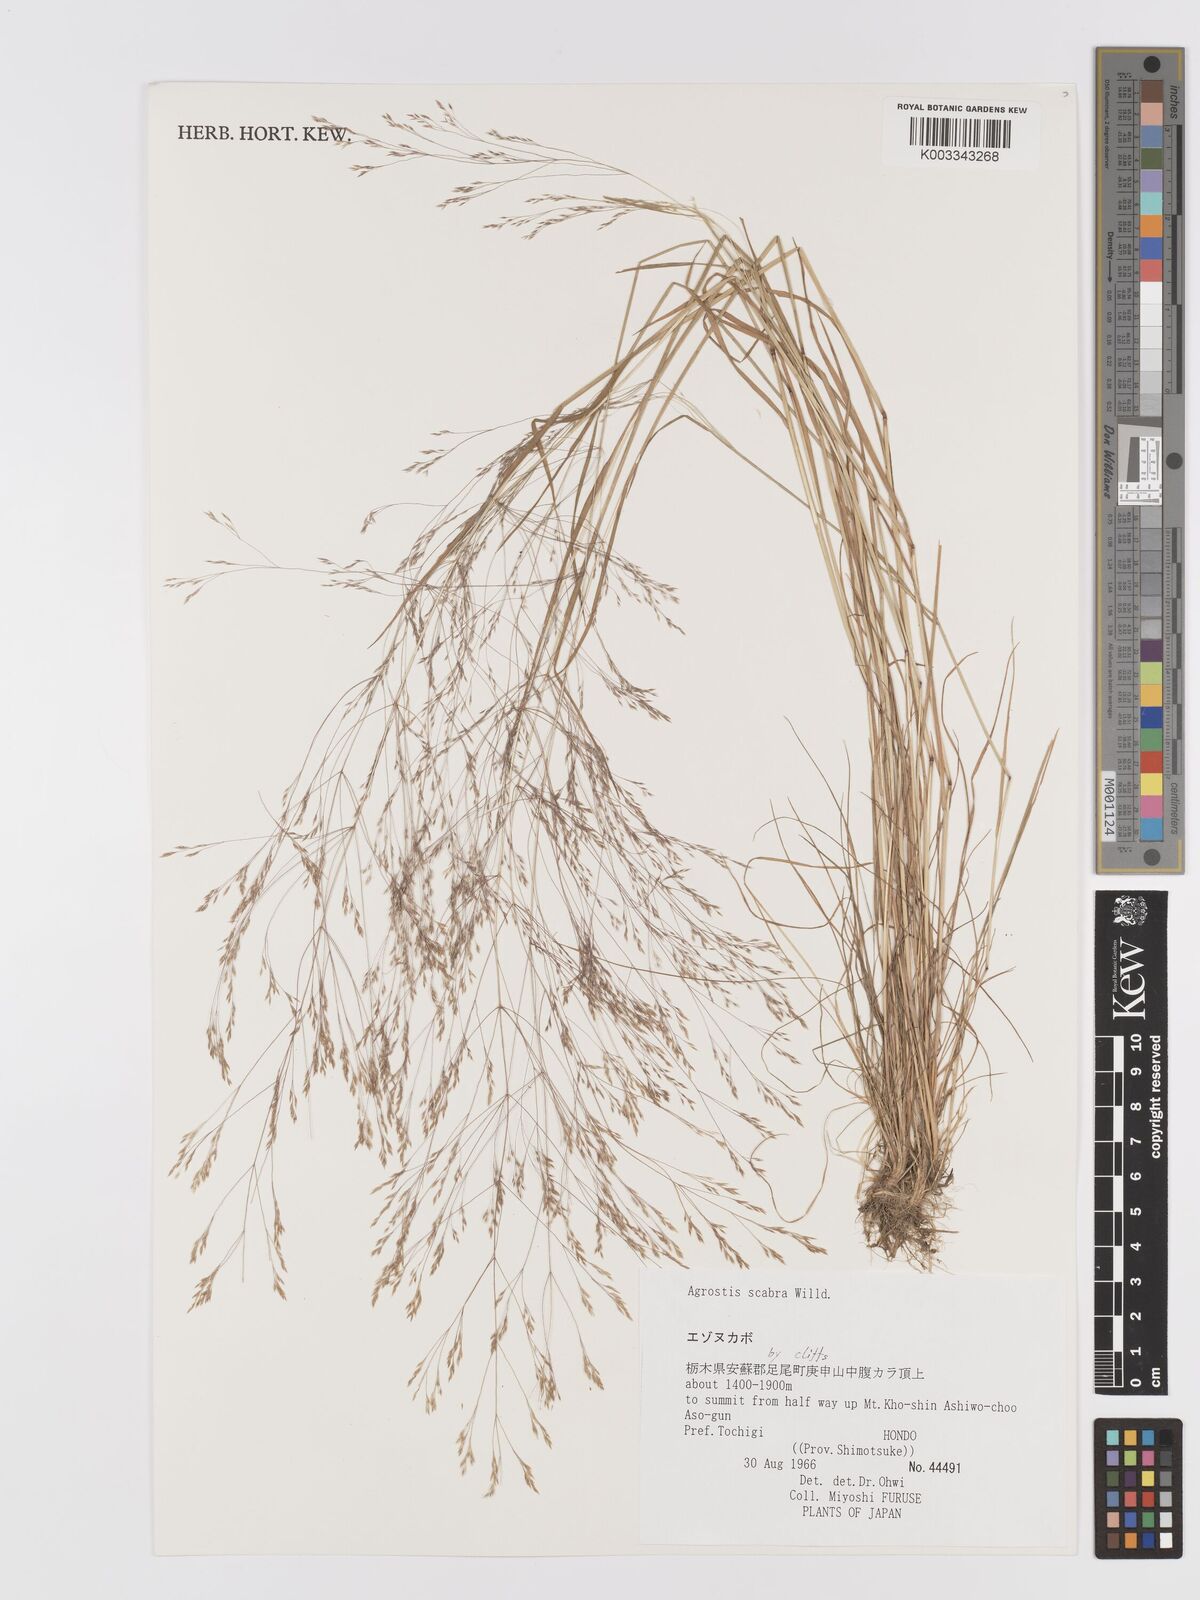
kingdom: Plantae
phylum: Tracheophyta
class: Liliopsida
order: Poales
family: Poaceae
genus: Agrostis
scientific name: Agrostis scabra
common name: Rough bent
